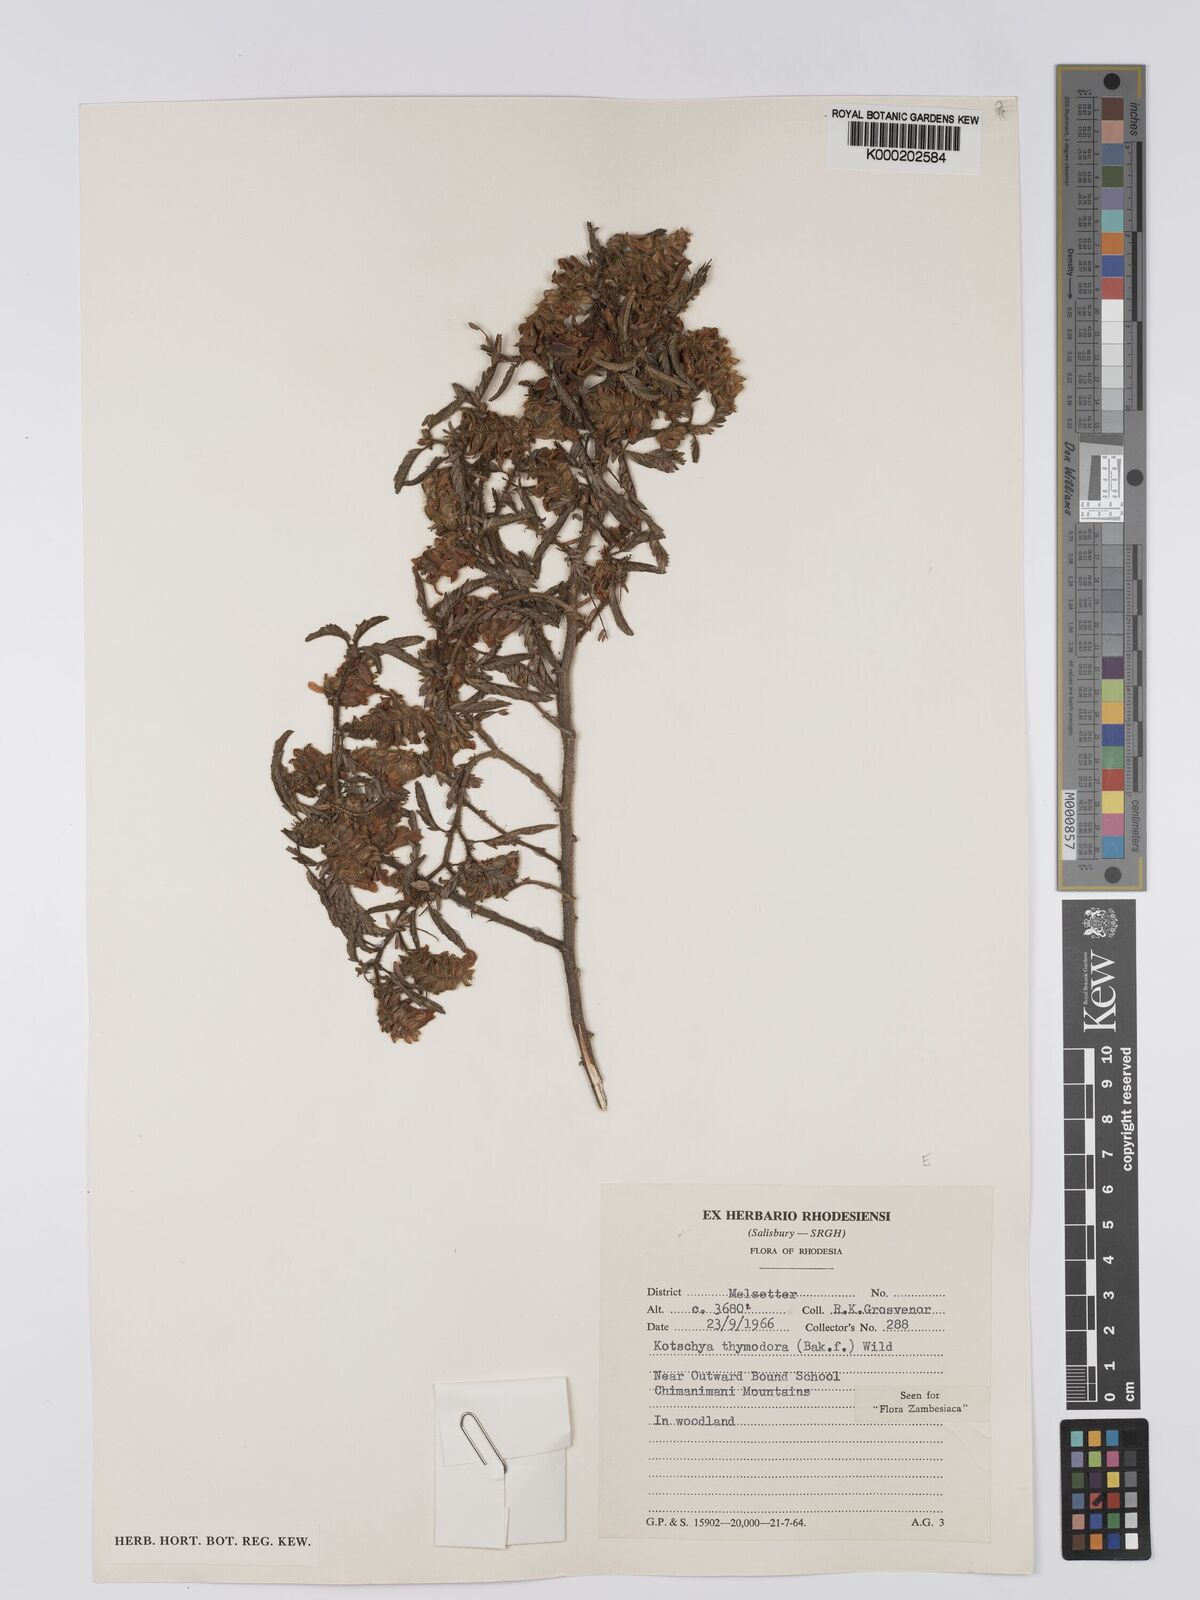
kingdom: Plantae
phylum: Tracheophyta
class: Magnoliopsida
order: Fabales
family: Fabaceae
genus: Kotschya
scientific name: Kotschya thymodora
